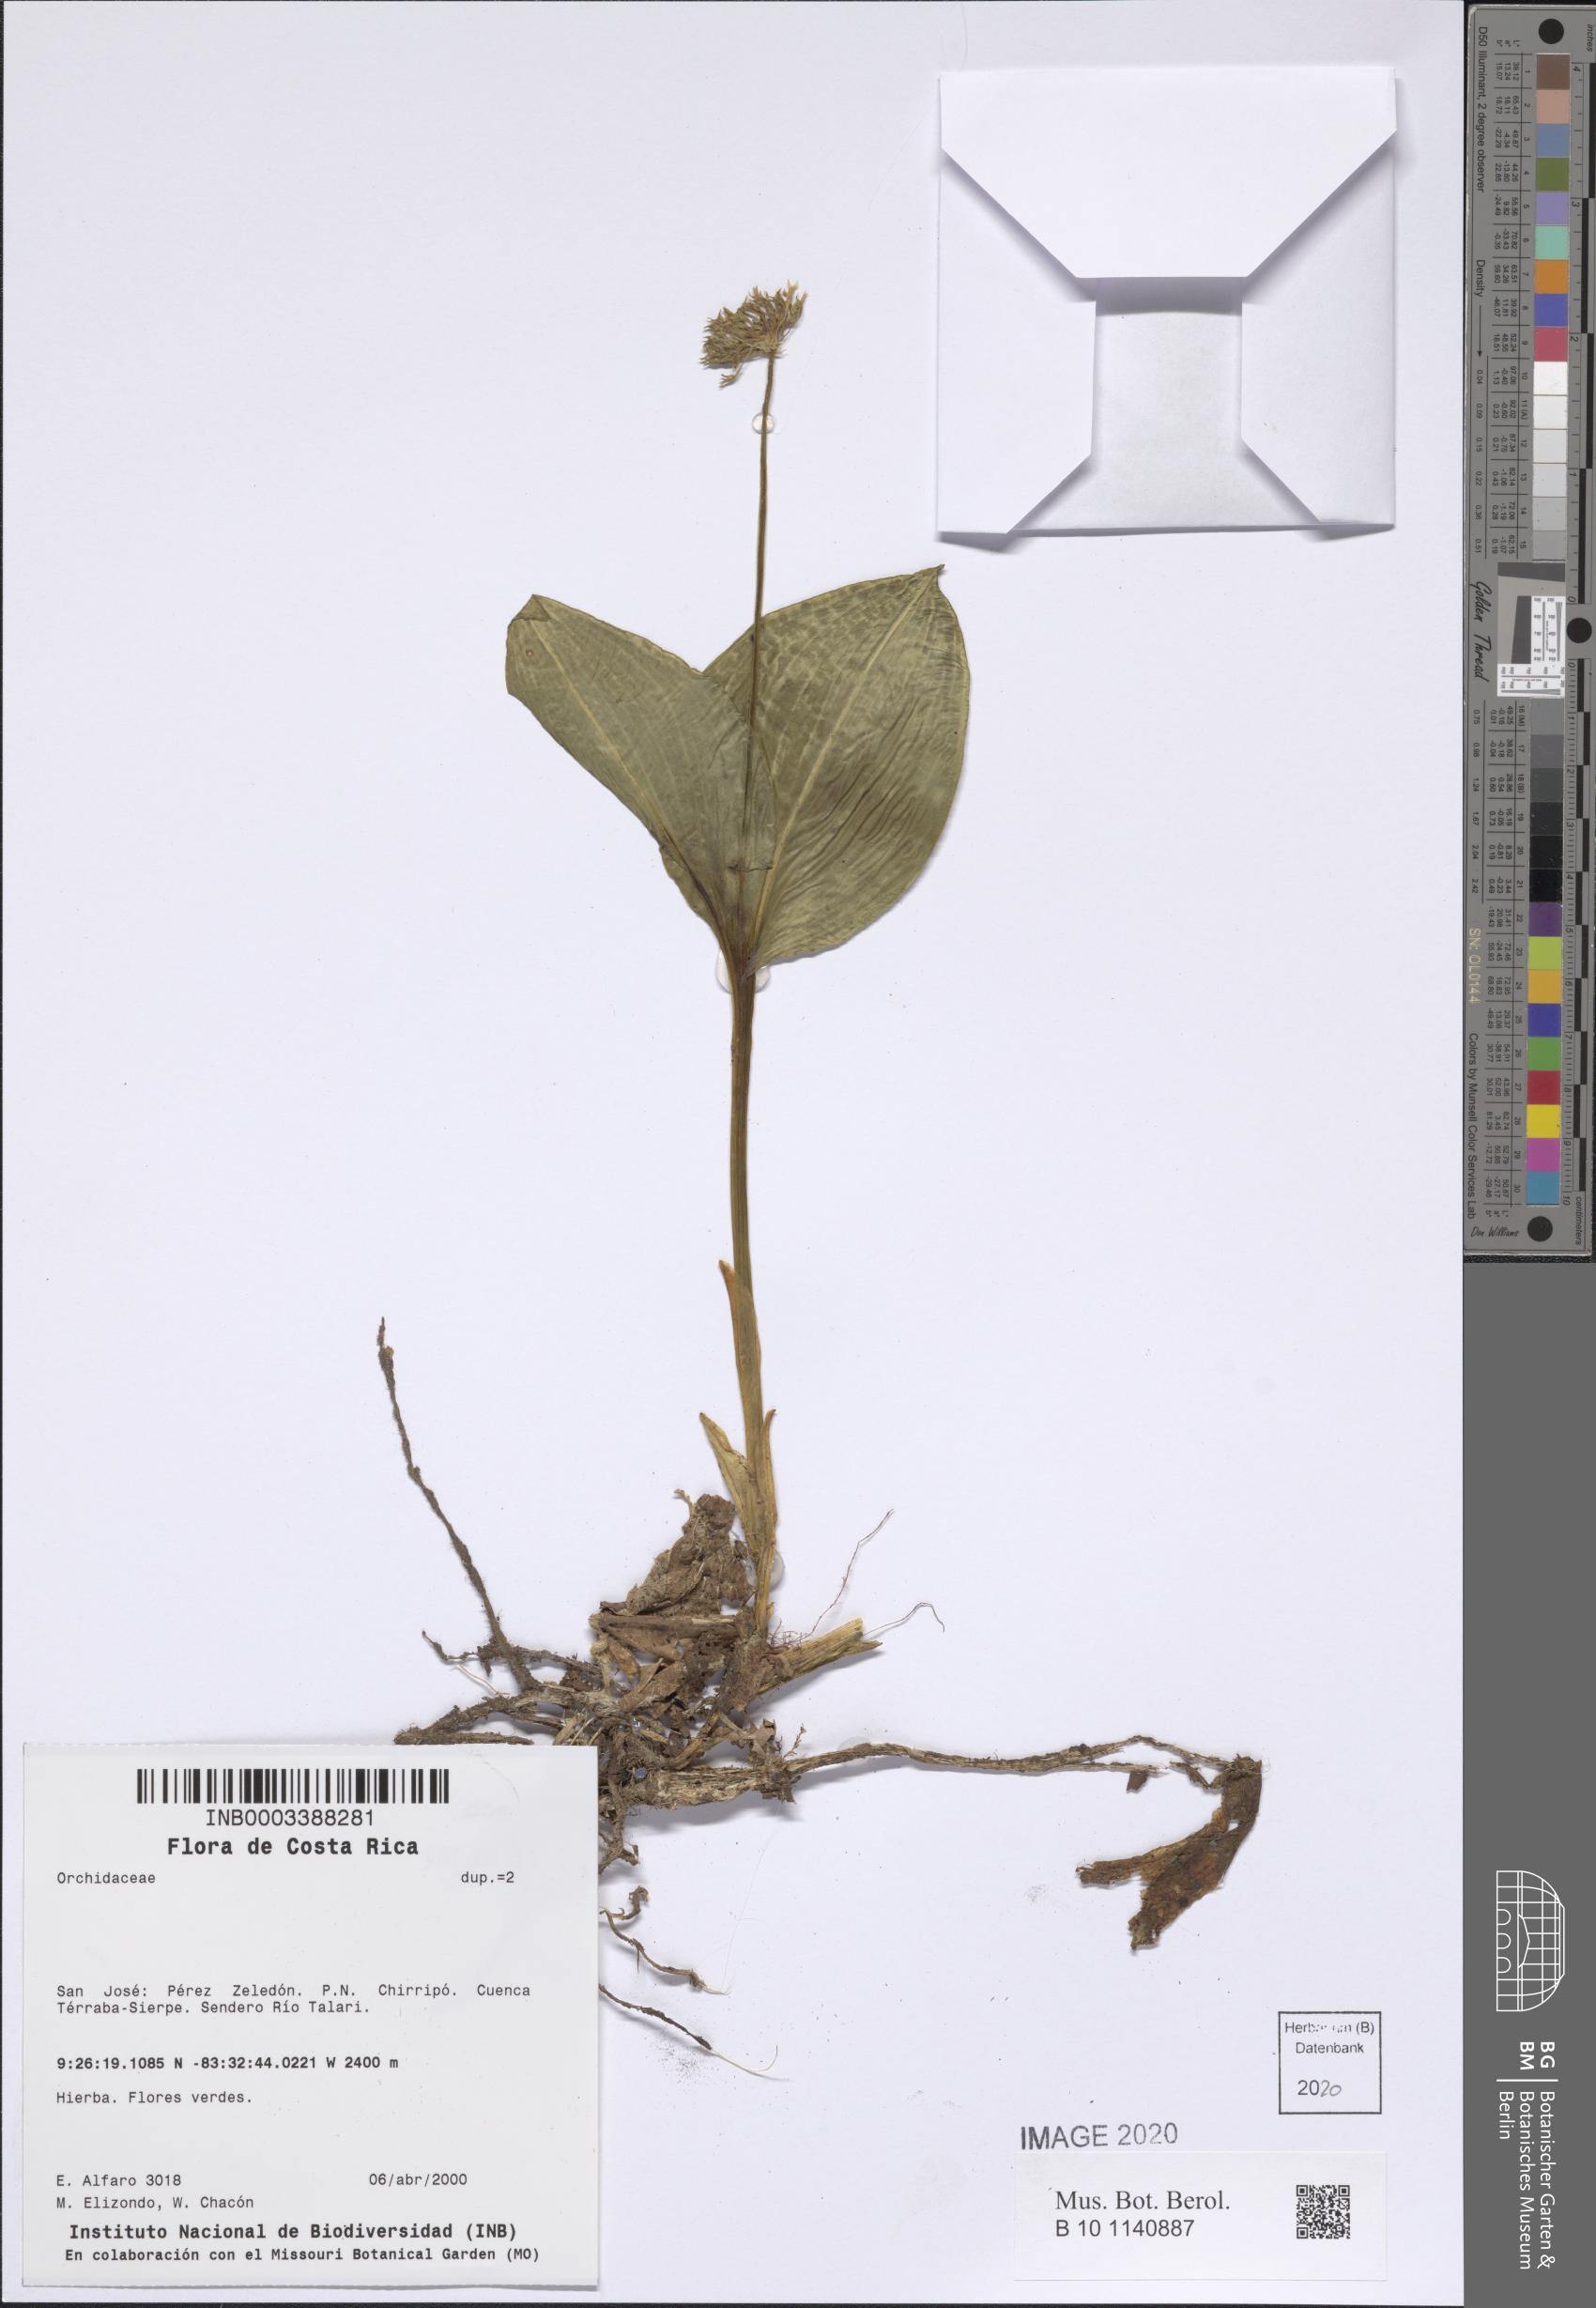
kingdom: Plantae
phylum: Tracheophyta
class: Liliopsida
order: Asparagales
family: Orchidaceae
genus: Malaxis
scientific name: Malaxis
